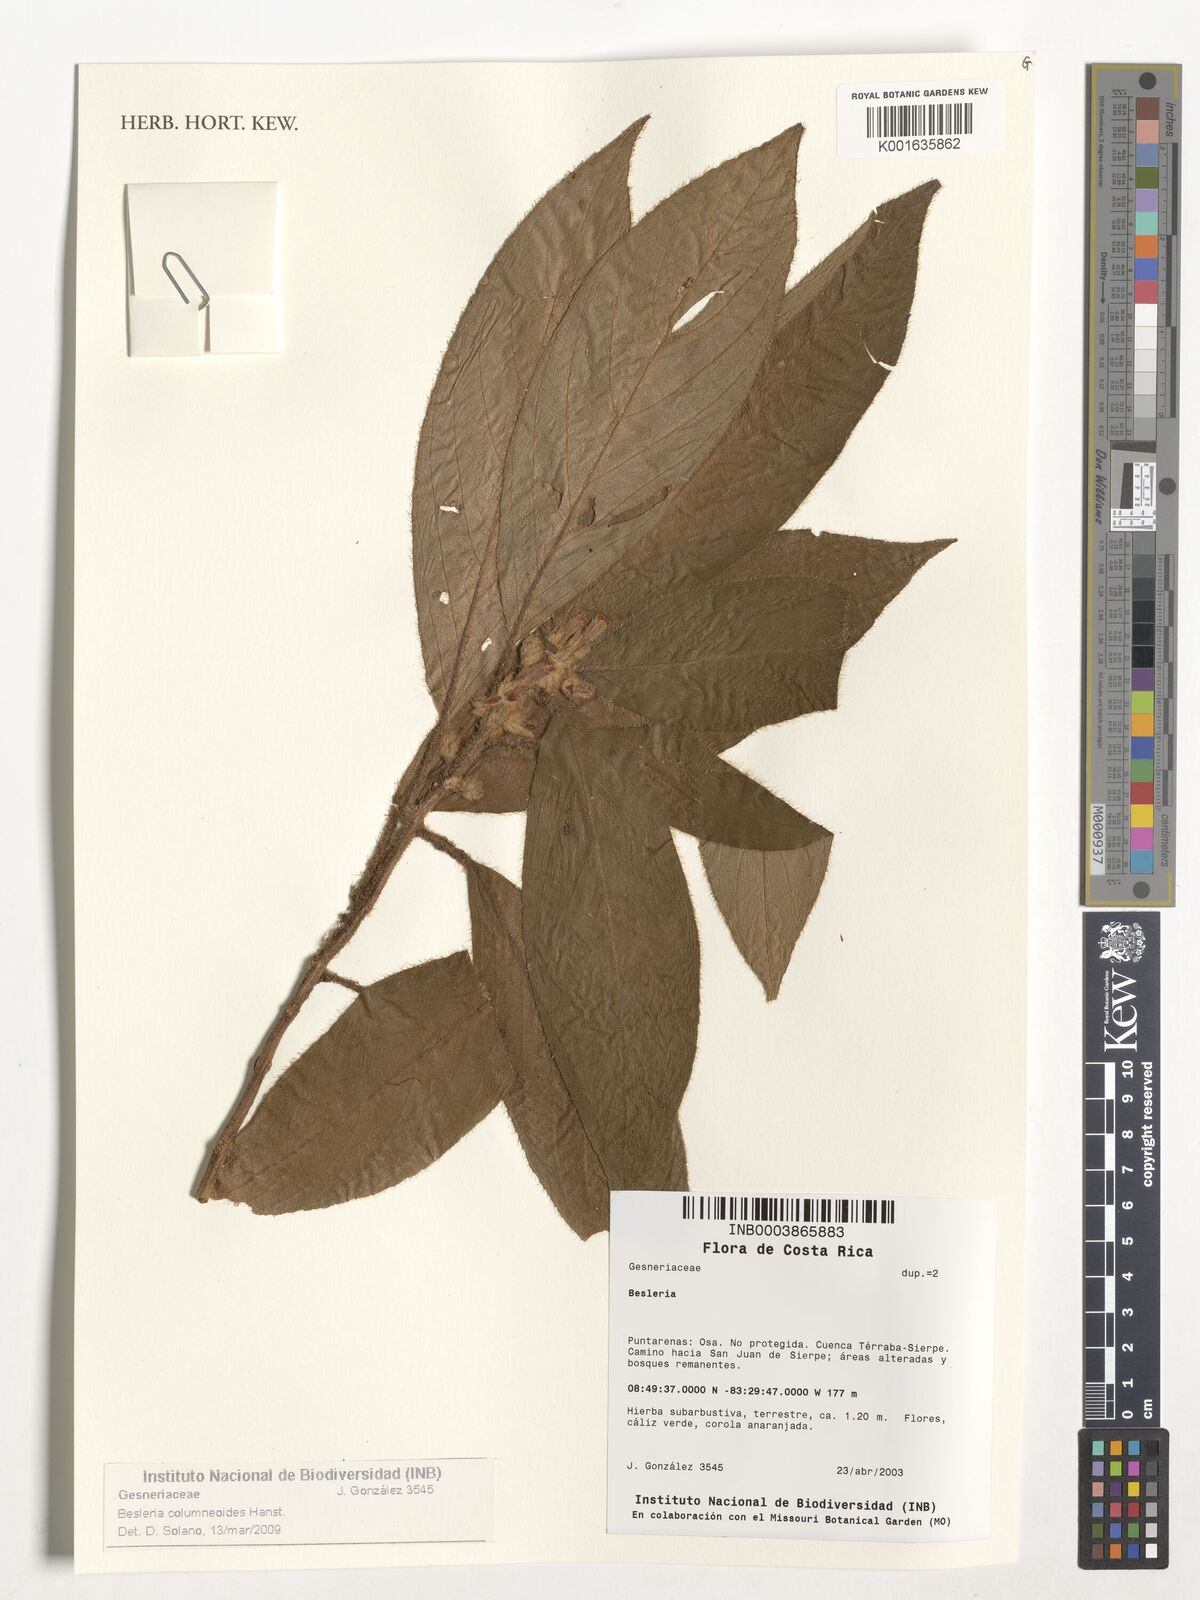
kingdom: Plantae
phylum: Tracheophyta
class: Magnoliopsida
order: Lamiales
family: Gesneriaceae
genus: Besleria
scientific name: Besleria columneoides
